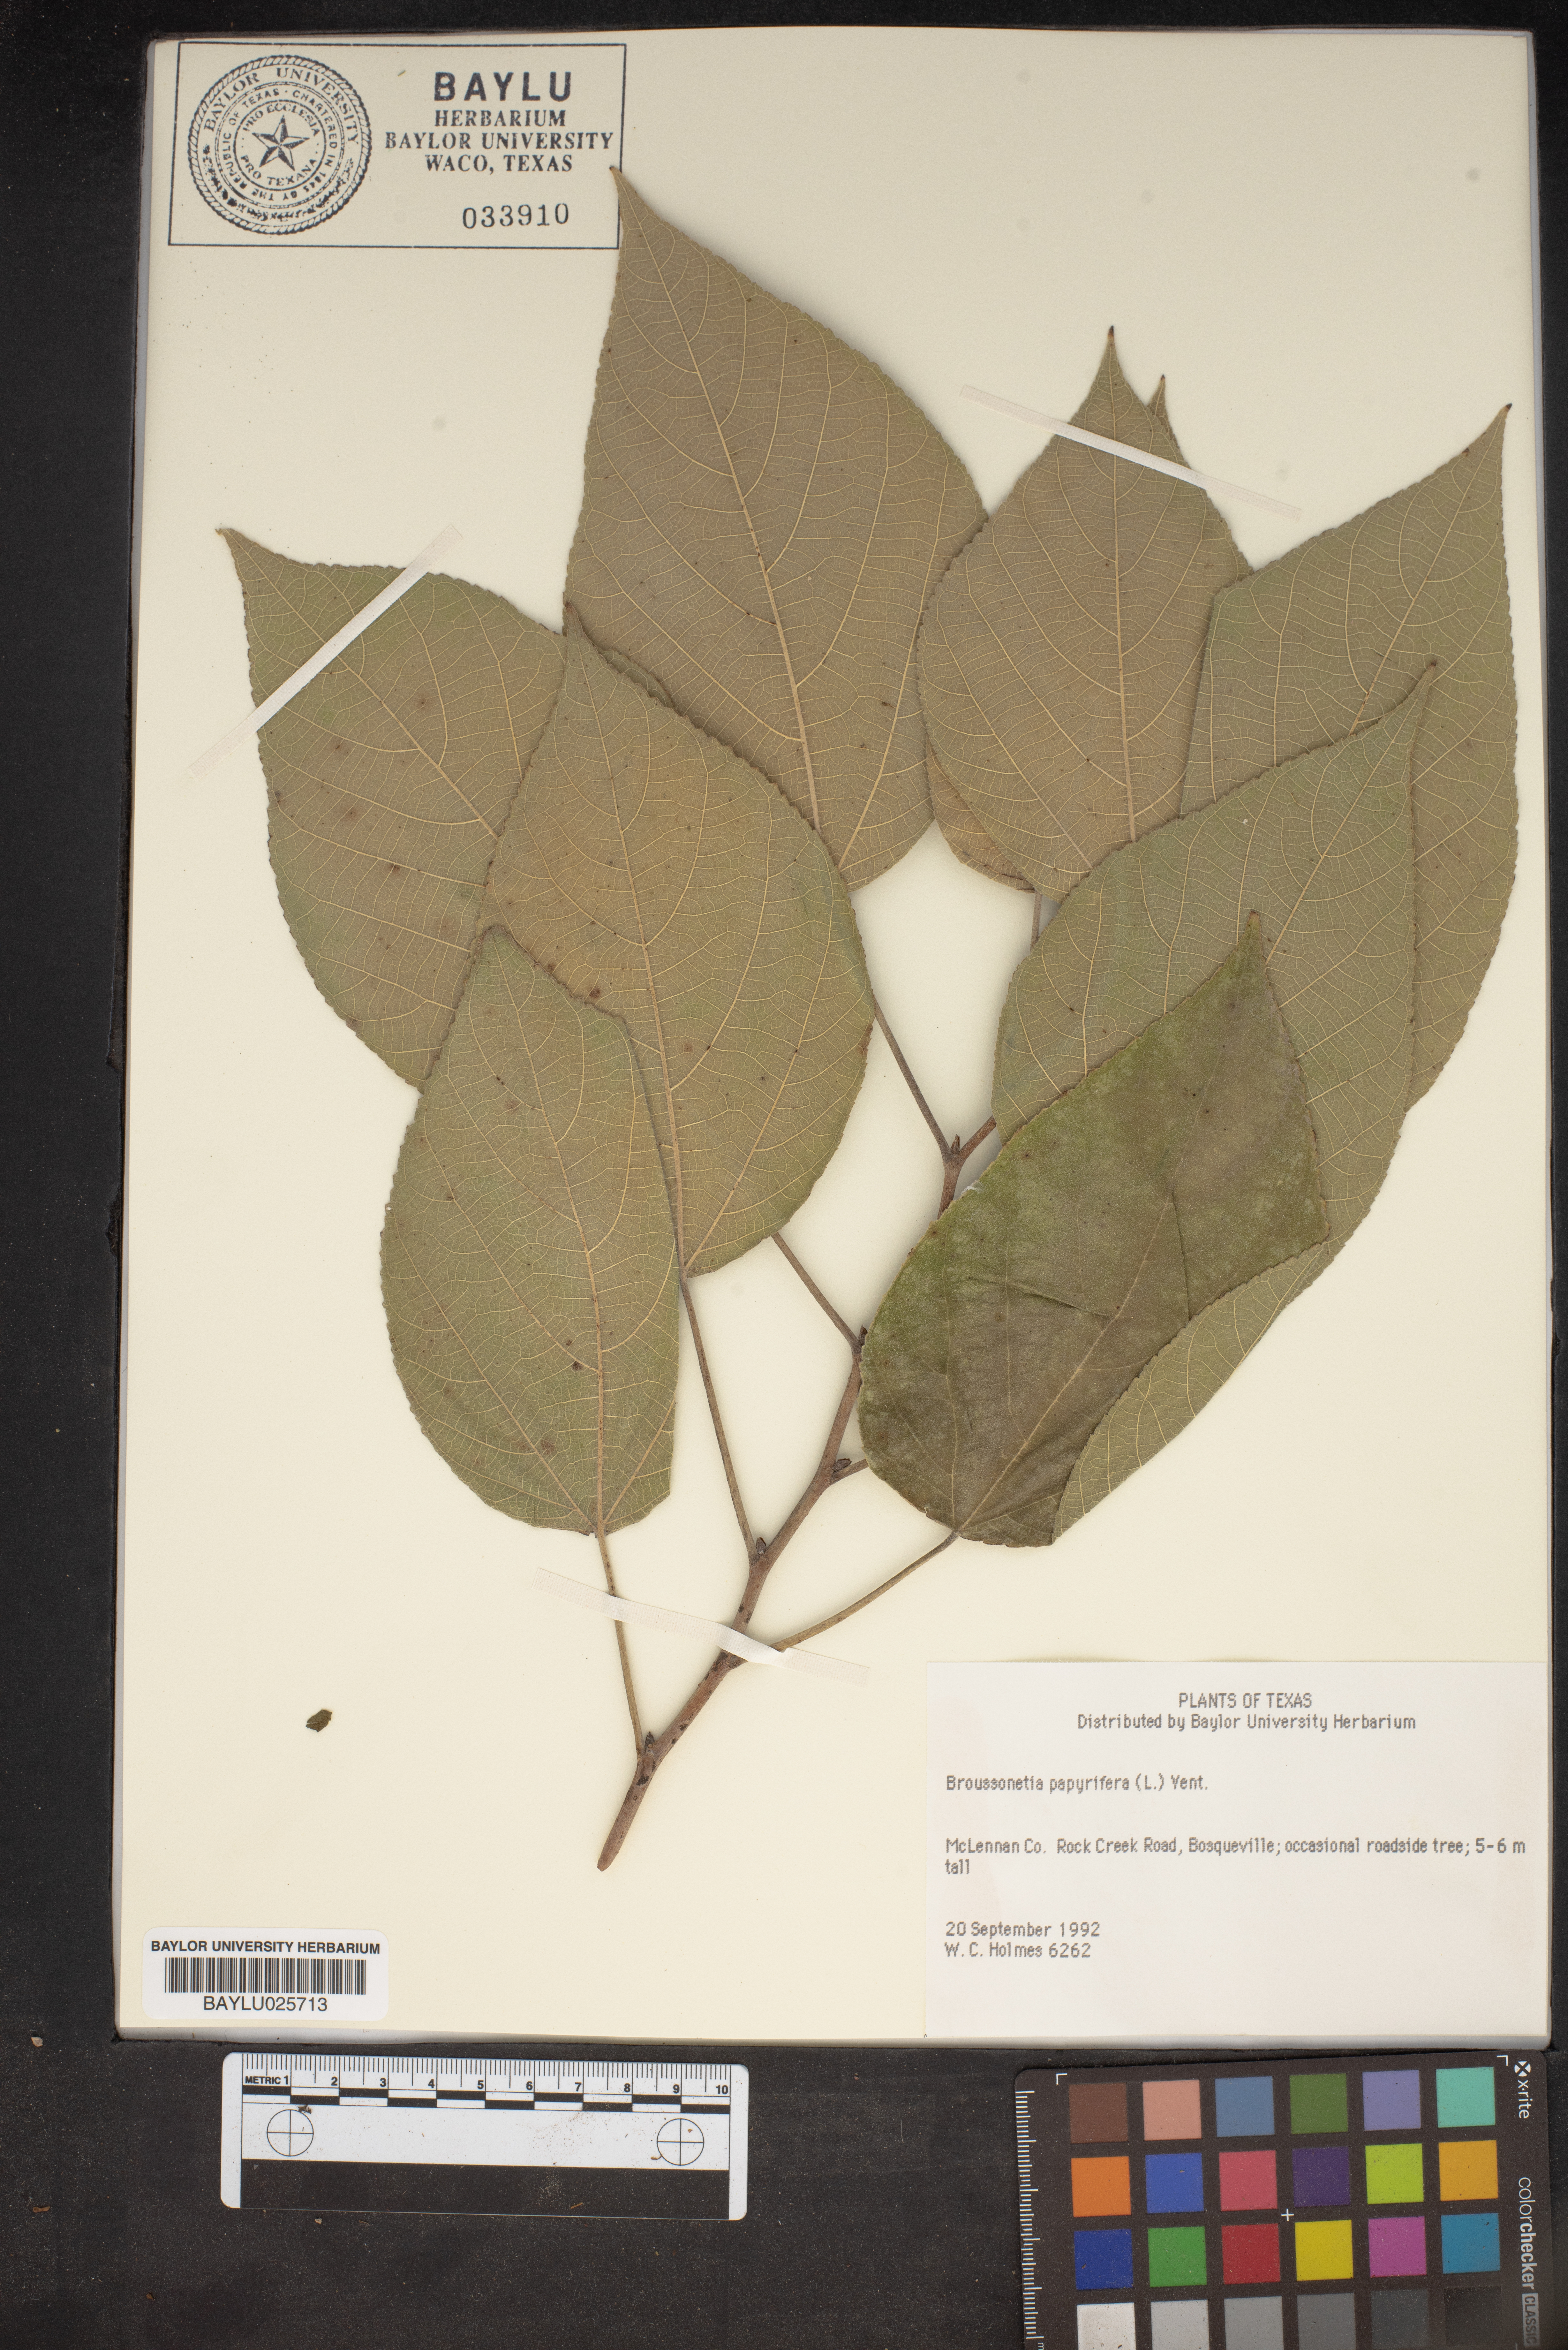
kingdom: Plantae
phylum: Tracheophyta
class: Magnoliopsida
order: Rosales
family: Moraceae
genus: Broussonetia
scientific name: Broussonetia papyrifera
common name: Paper mulberry
